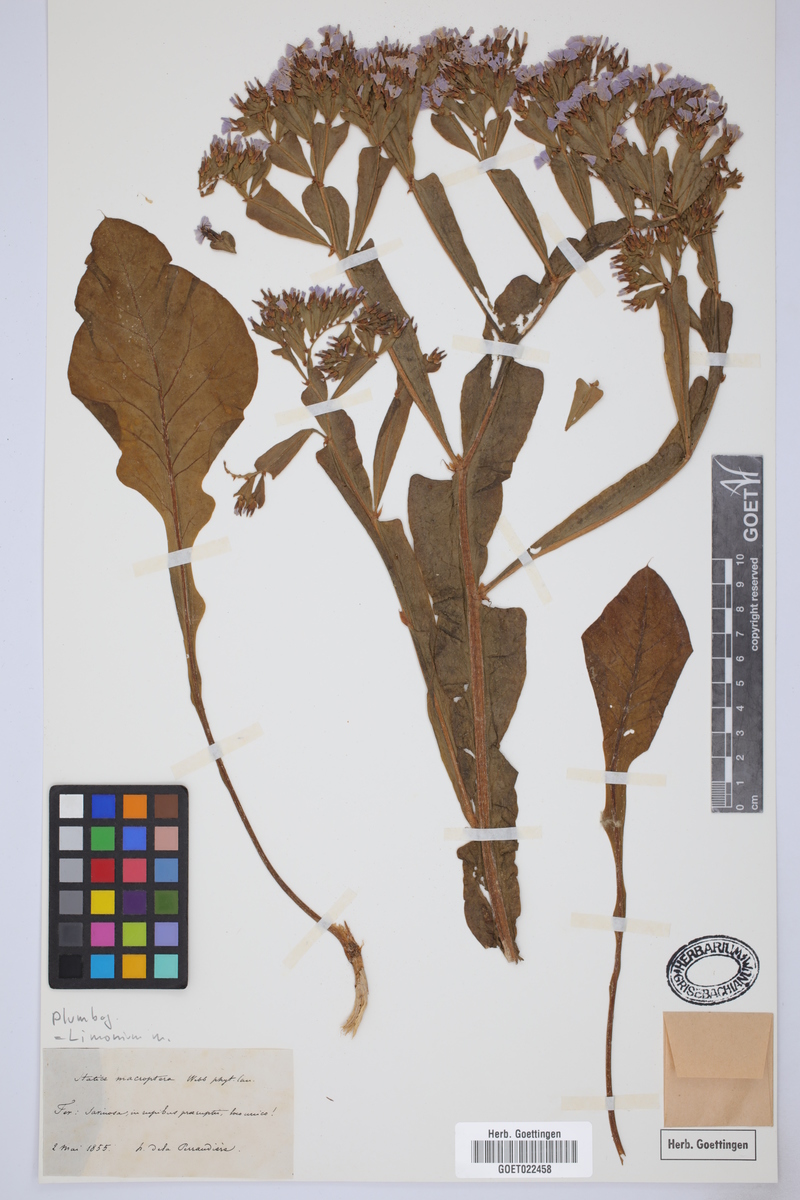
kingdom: Plantae
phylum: Tracheophyta
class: Magnoliopsida
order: Caryophyllales
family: Plumbaginaceae
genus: Limonium
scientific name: Limonium
